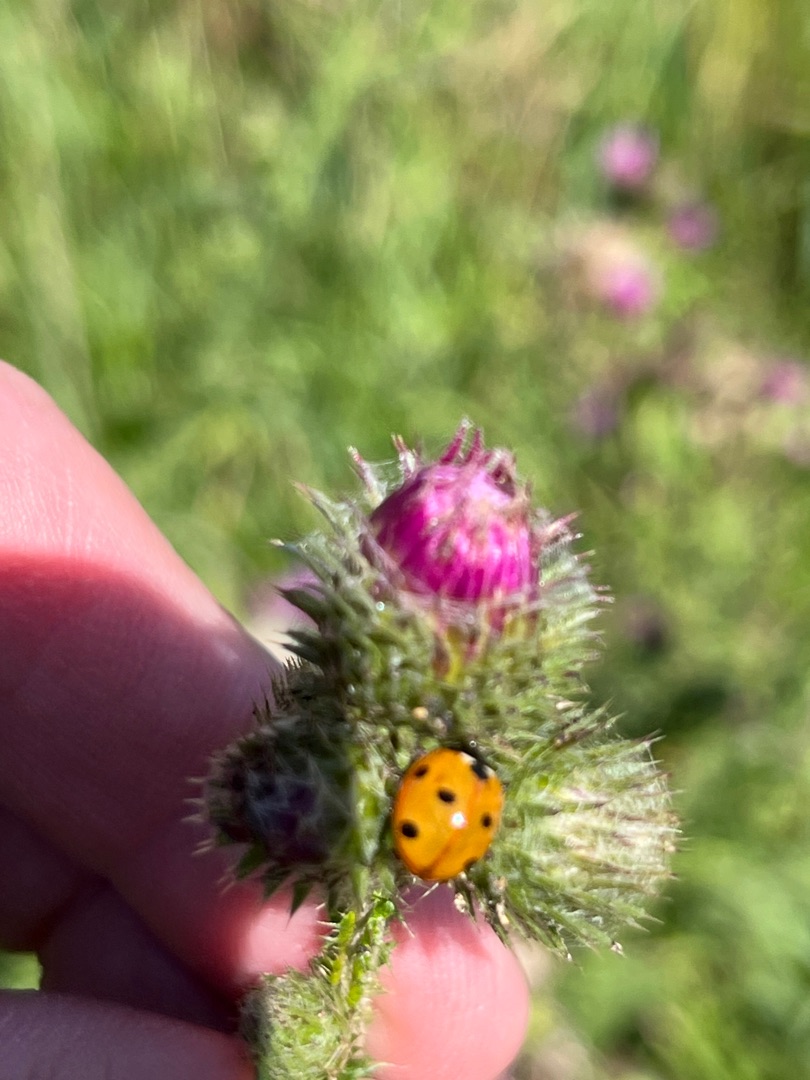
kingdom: Animalia
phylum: Arthropoda
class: Insecta
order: Coleoptera
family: Coccinellidae
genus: Coccinella
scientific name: Coccinella septempunctata
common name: Syvplettet mariehøne
